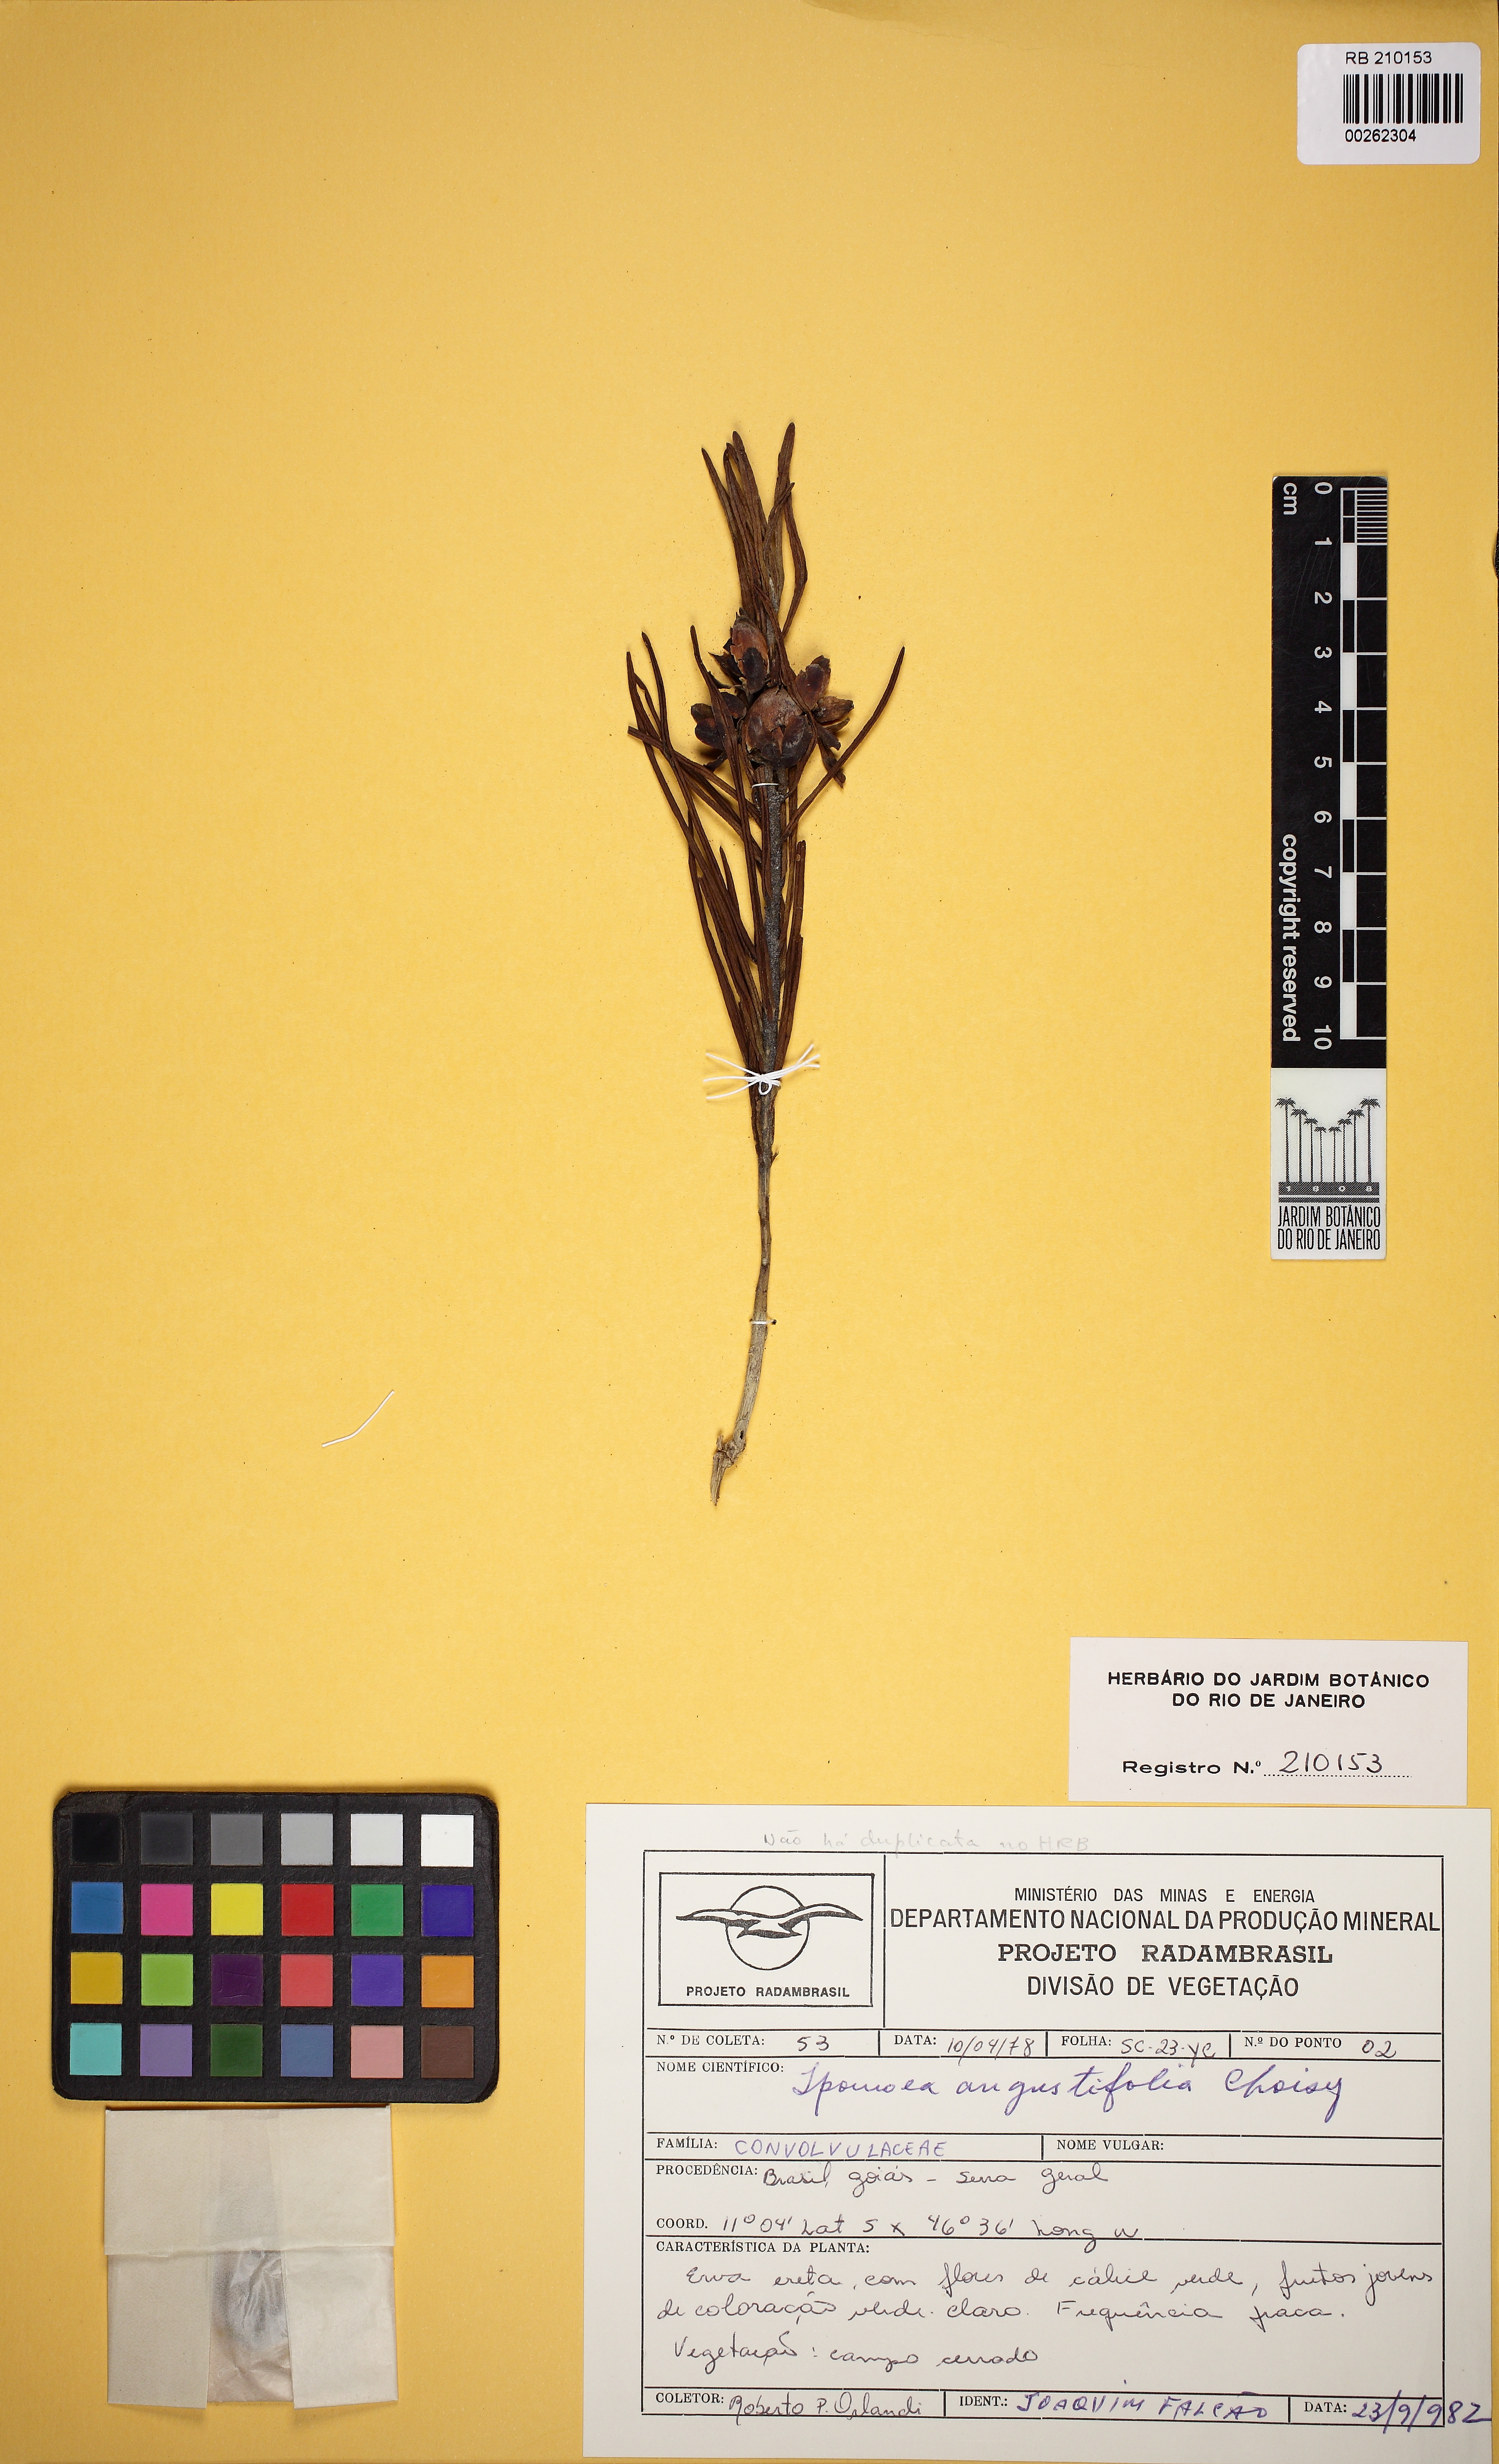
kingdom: Plantae
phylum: Tracheophyta
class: Magnoliopsida
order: Solanales
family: Convolvulaceae
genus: Ipomoea
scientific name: Ipomoea aprica
